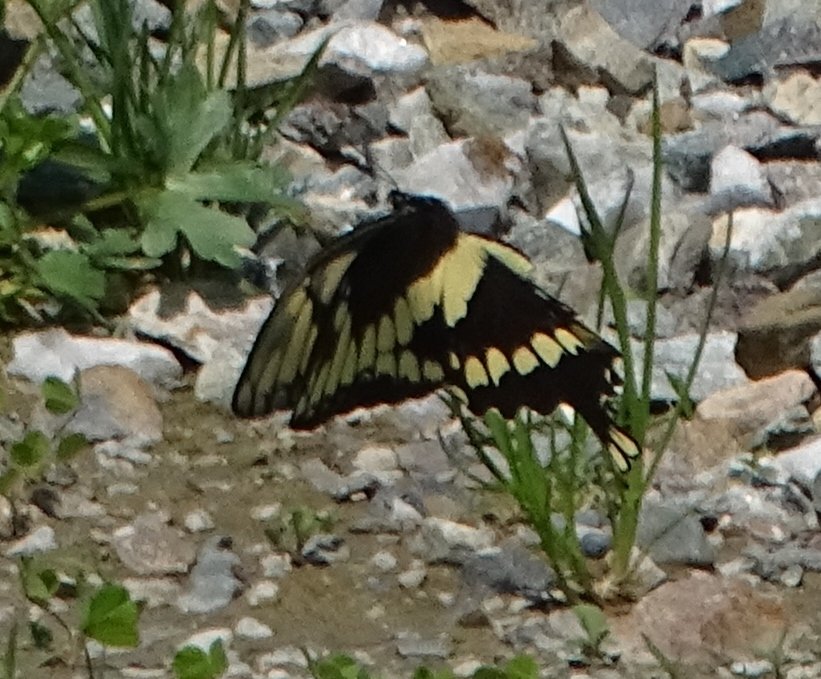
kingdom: Animalia
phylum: Arthropoda
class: Insecta
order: Lepidoptera
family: Papilionidae
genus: Papilio
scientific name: Papilio cresphontes
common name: Eastern Giant Swallowtail
